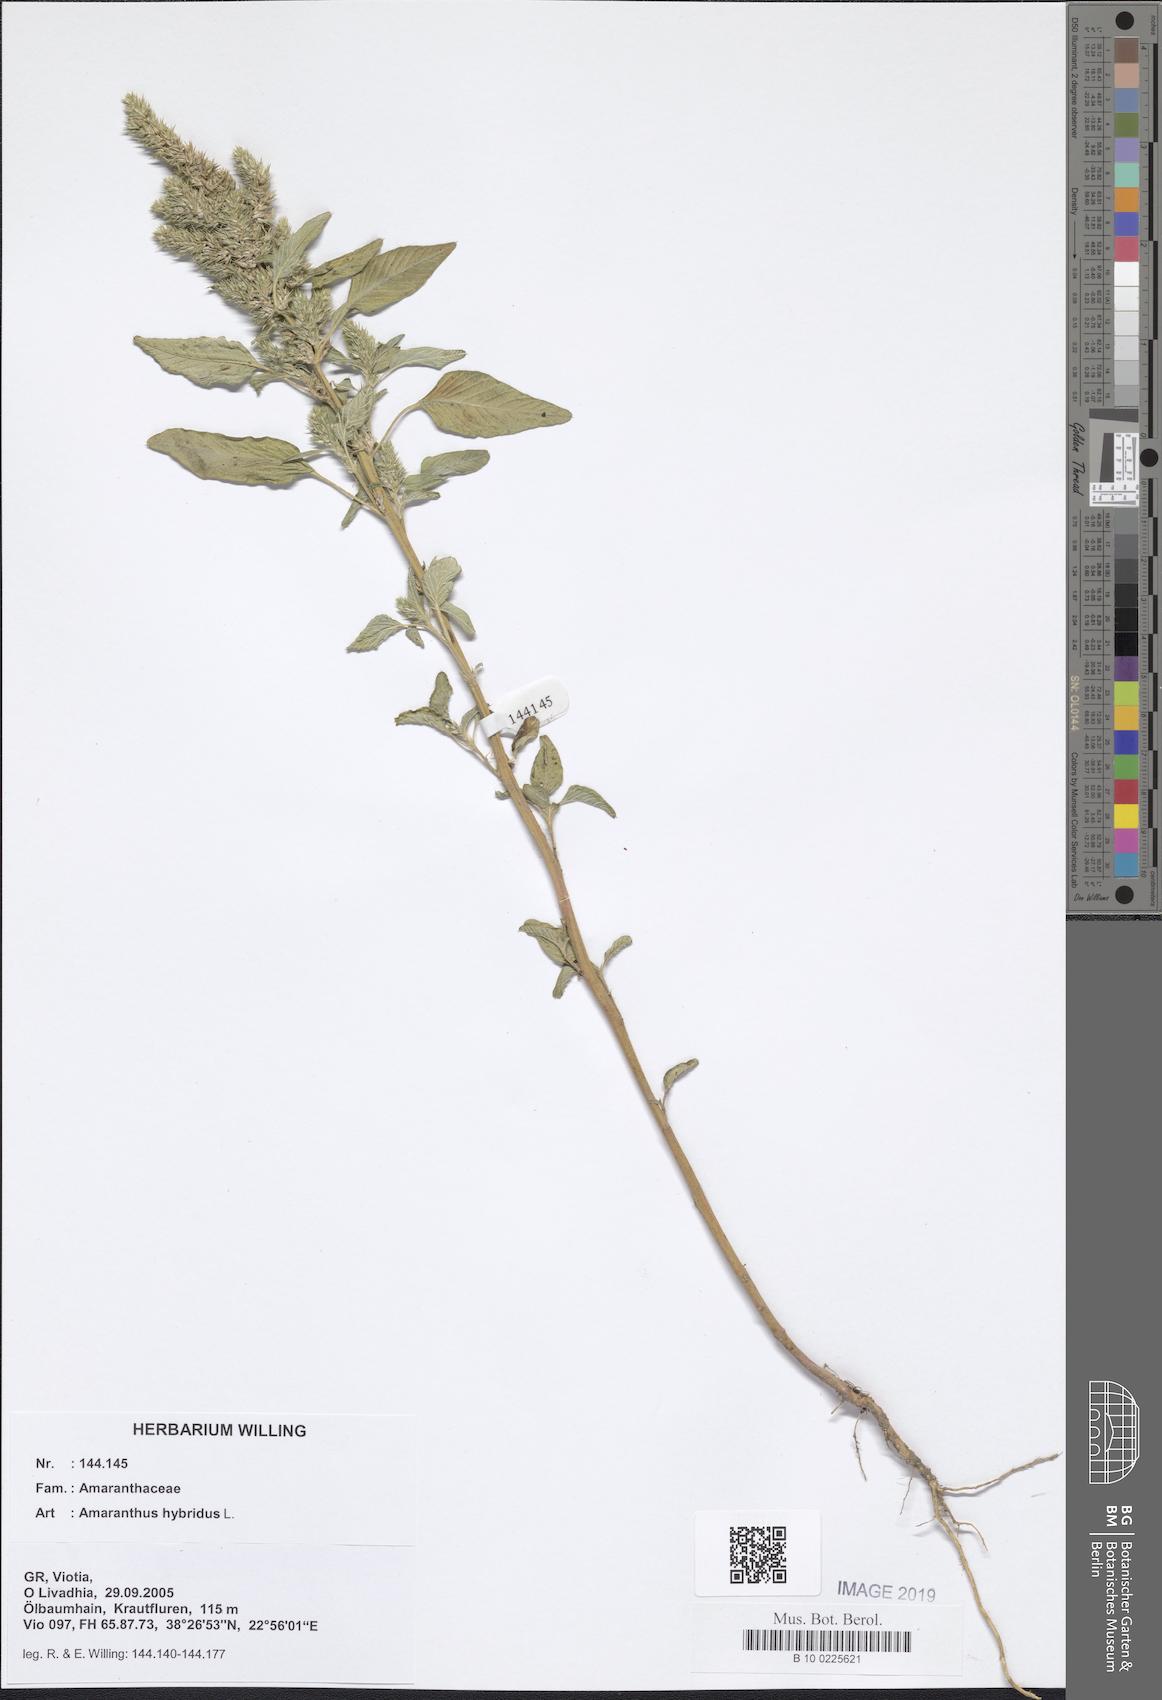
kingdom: Plantae
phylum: Tracheophyta
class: Magnoliopsida
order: Caryophyllales
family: Amaranthaceae
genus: Amaranthus
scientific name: Amaranthus hybridus
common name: Green amaranth
